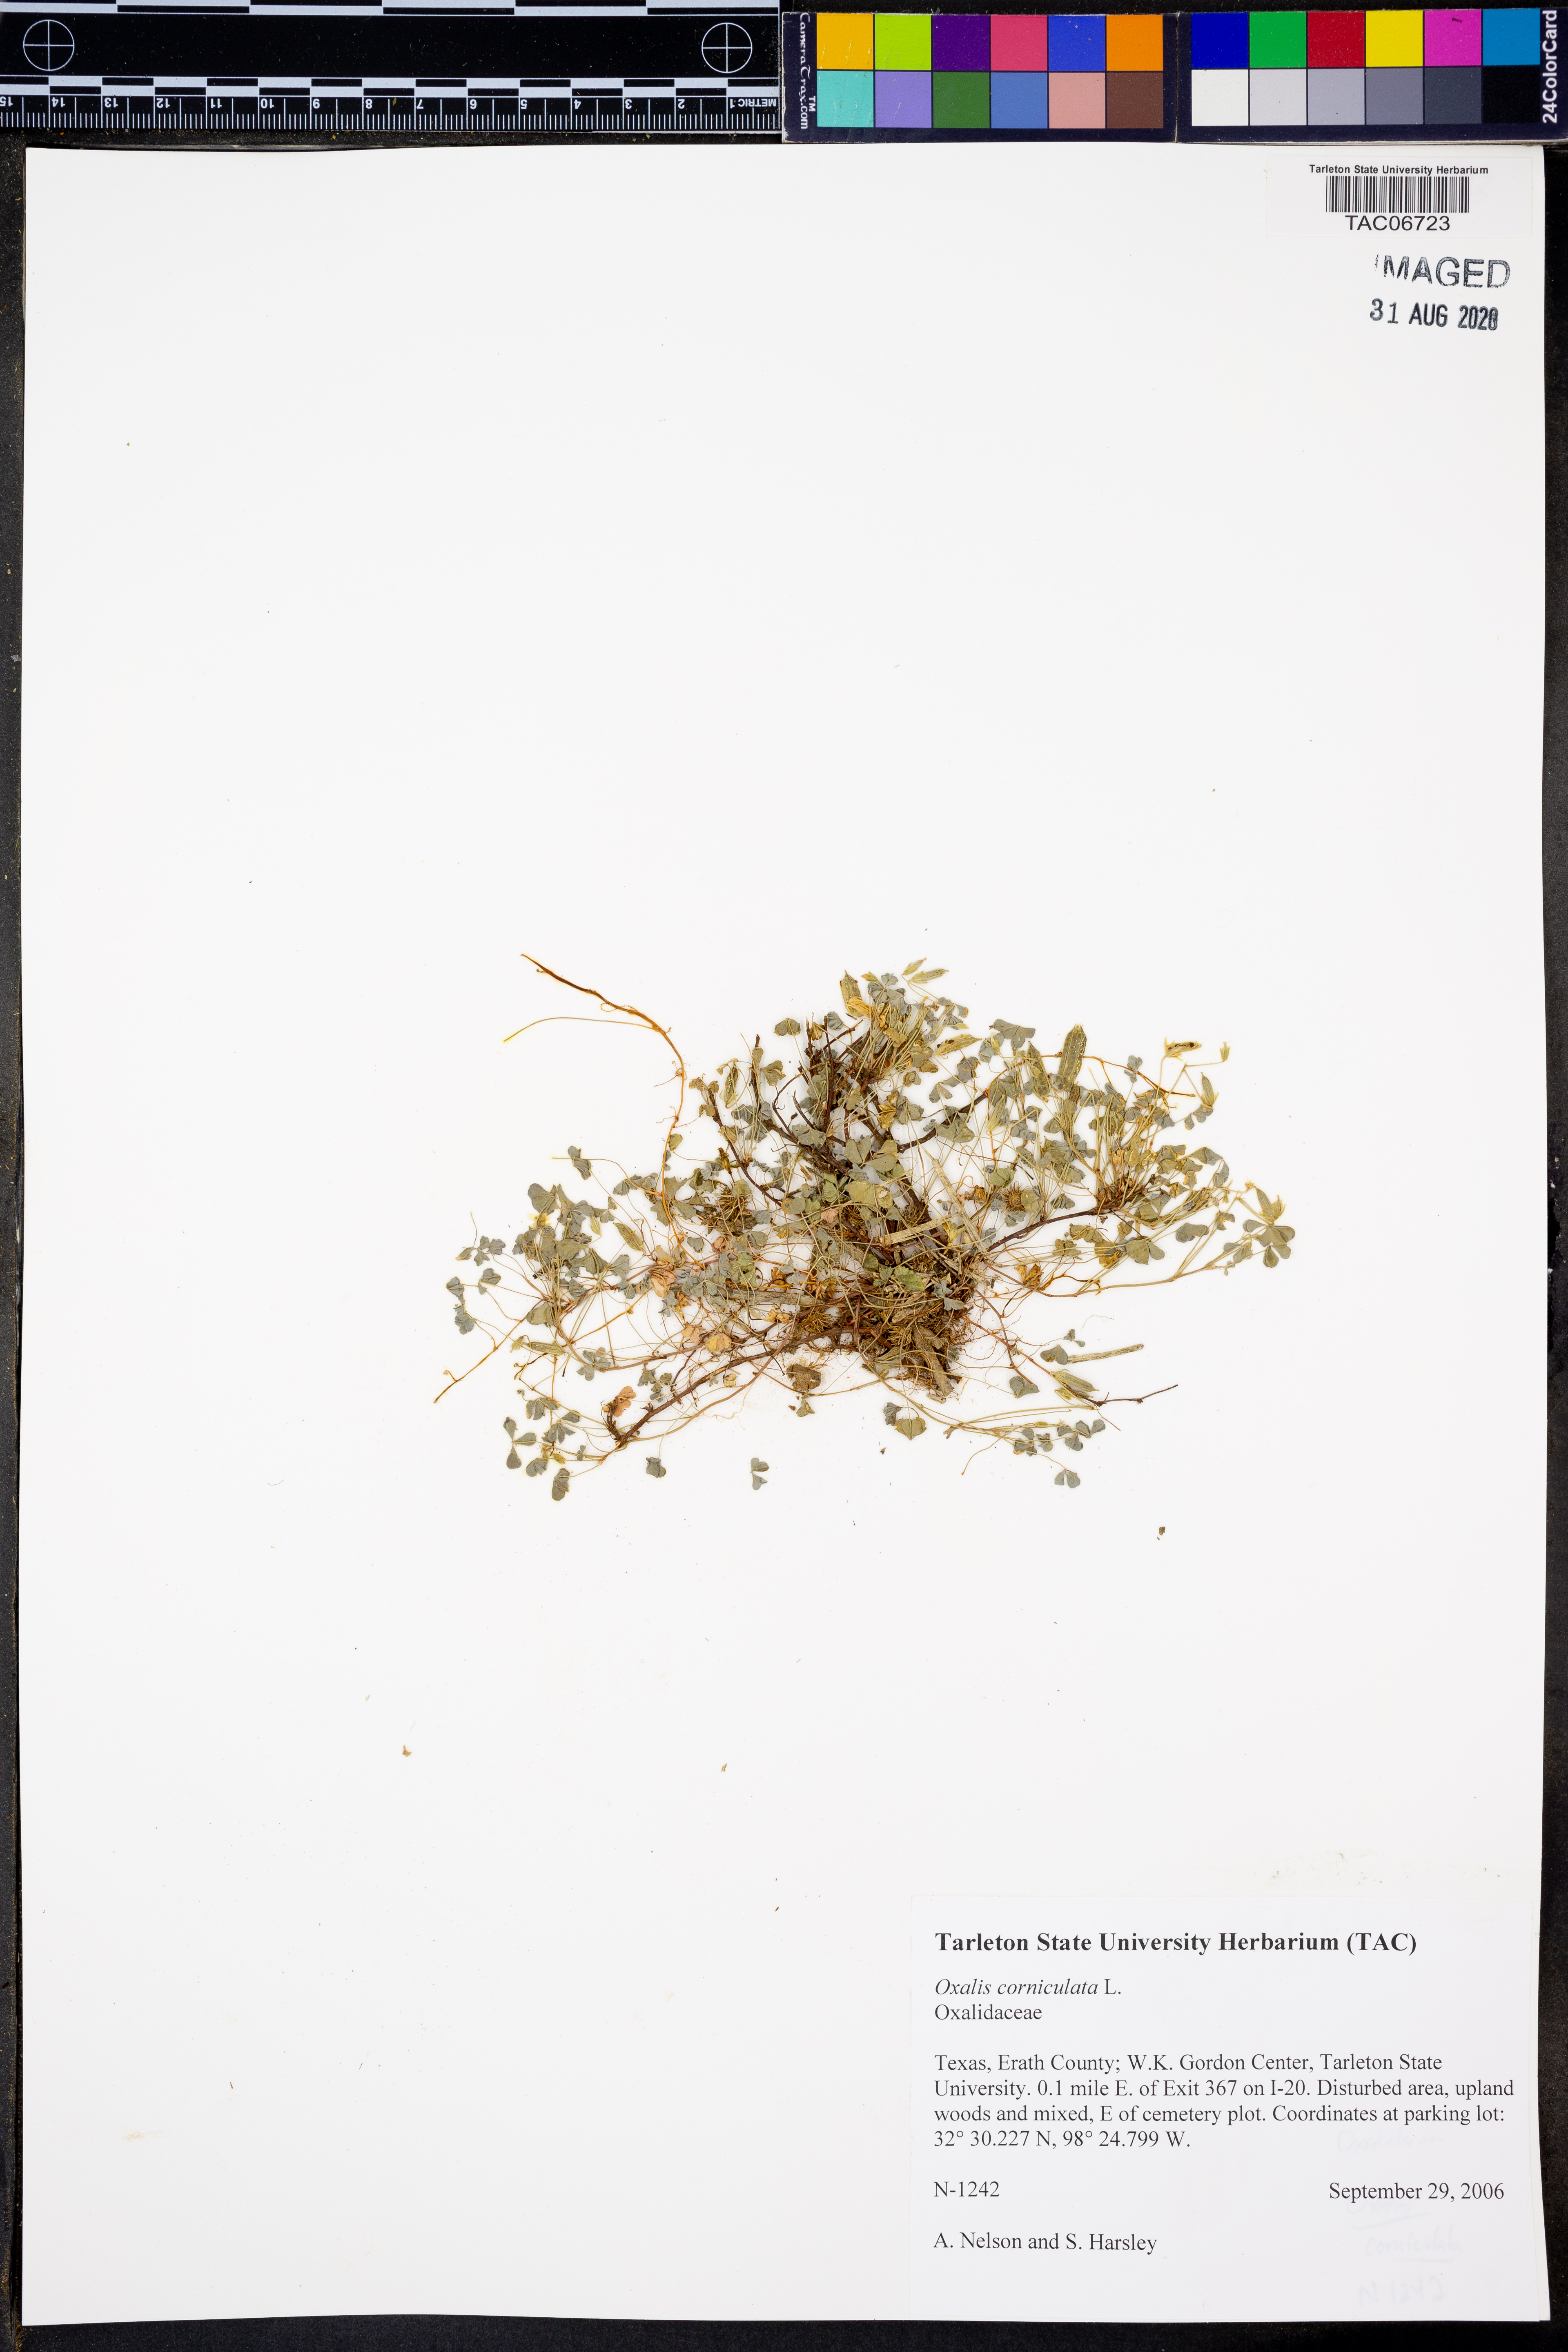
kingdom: Plantae
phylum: Tracheophyta
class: Magnoliopsida
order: Oxalidales
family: Oxalidaceae
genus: Oxalis
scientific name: Oxalis corniculata
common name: Procumbent yellow-sorrel
